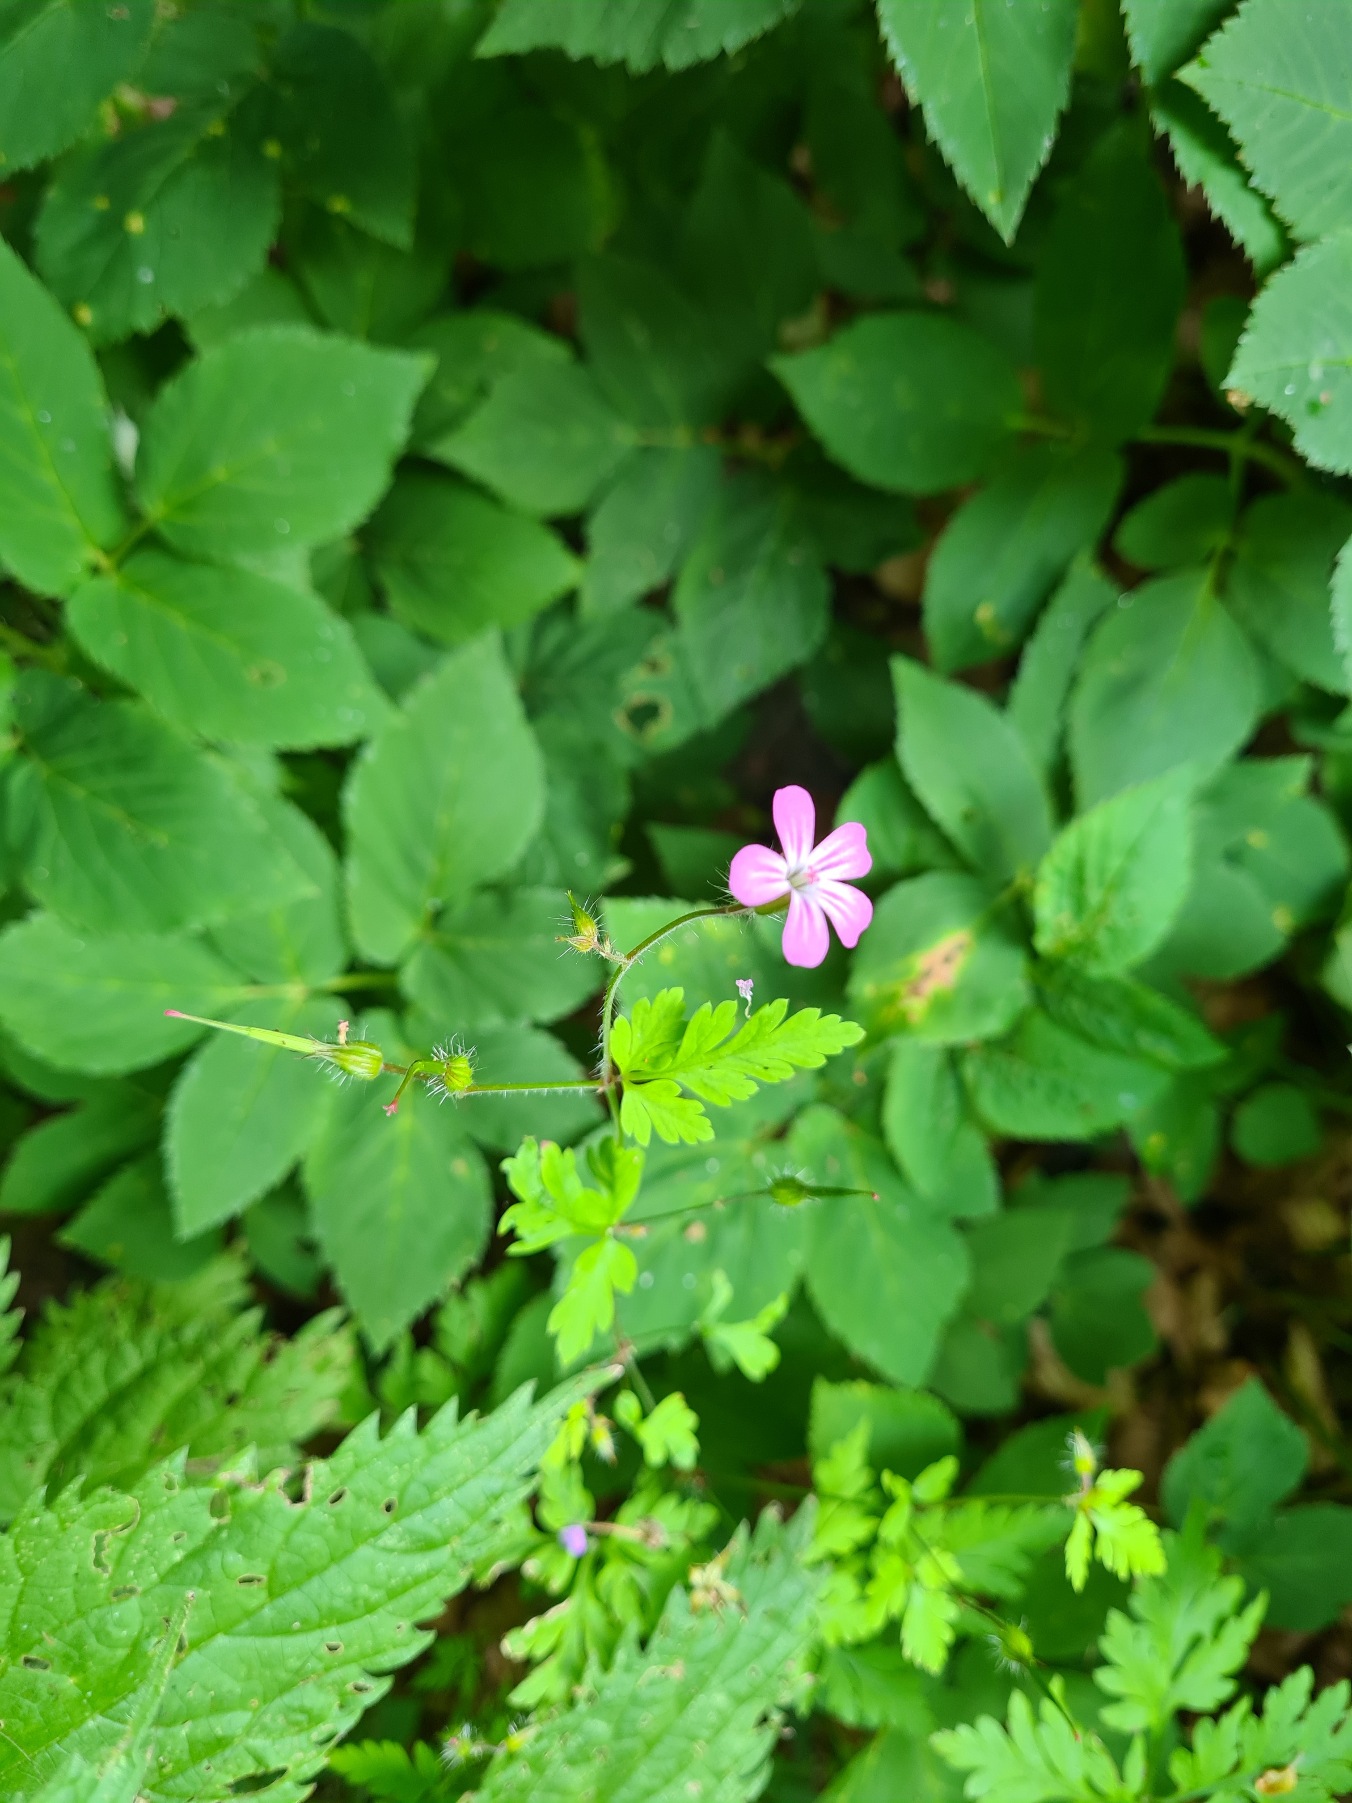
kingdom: Plantae
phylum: Tracheophyta
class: Magnoliopsida
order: Geraniales
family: Geraniaceae
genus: Geranium
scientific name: Geranium robertianum
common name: Stinkende storkenæb
